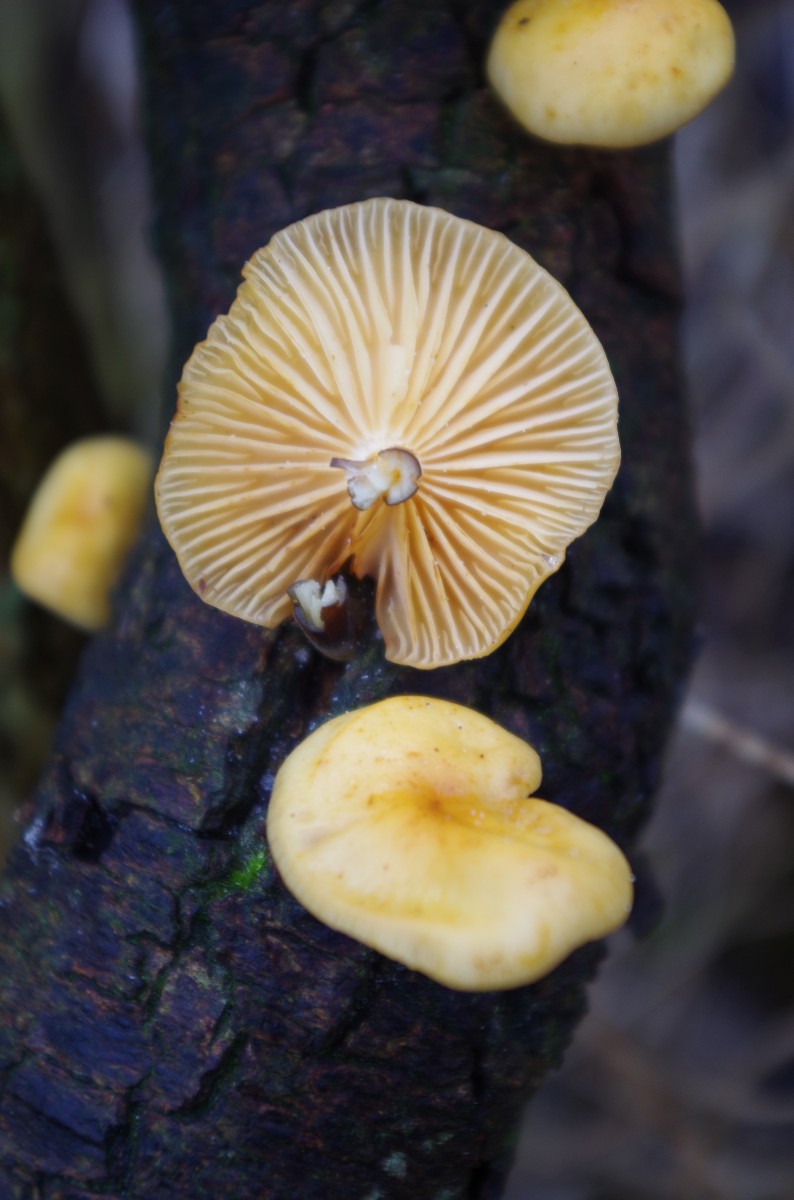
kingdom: Fungi
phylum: Basidiomycota
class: Agaricomycetes
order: Agaricales
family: Physalacriaceae
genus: Flammulina
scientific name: Flammulina velutipes
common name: gul fløjlsfod
